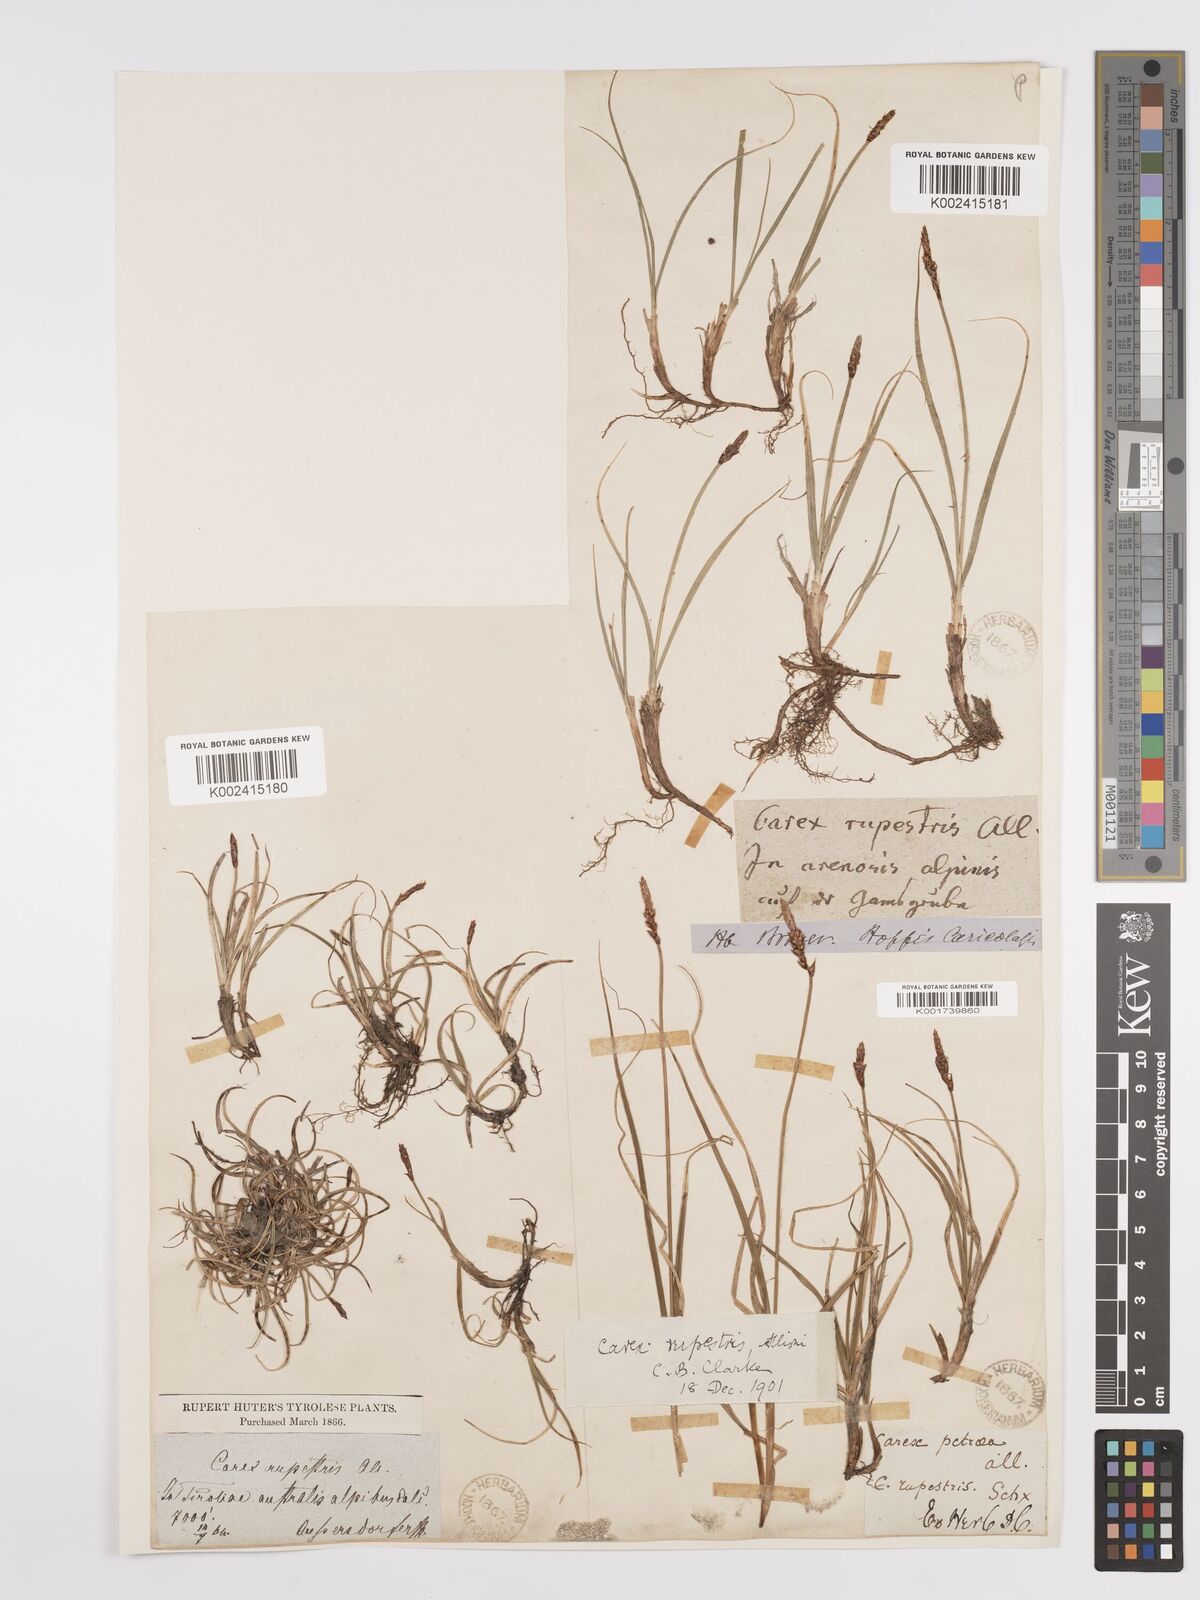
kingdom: Plantae
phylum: Tracheophyta
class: Liliopsida
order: Poales
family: Cyperaceae
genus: Carex
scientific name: Carex rupestris
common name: Rock sedge
